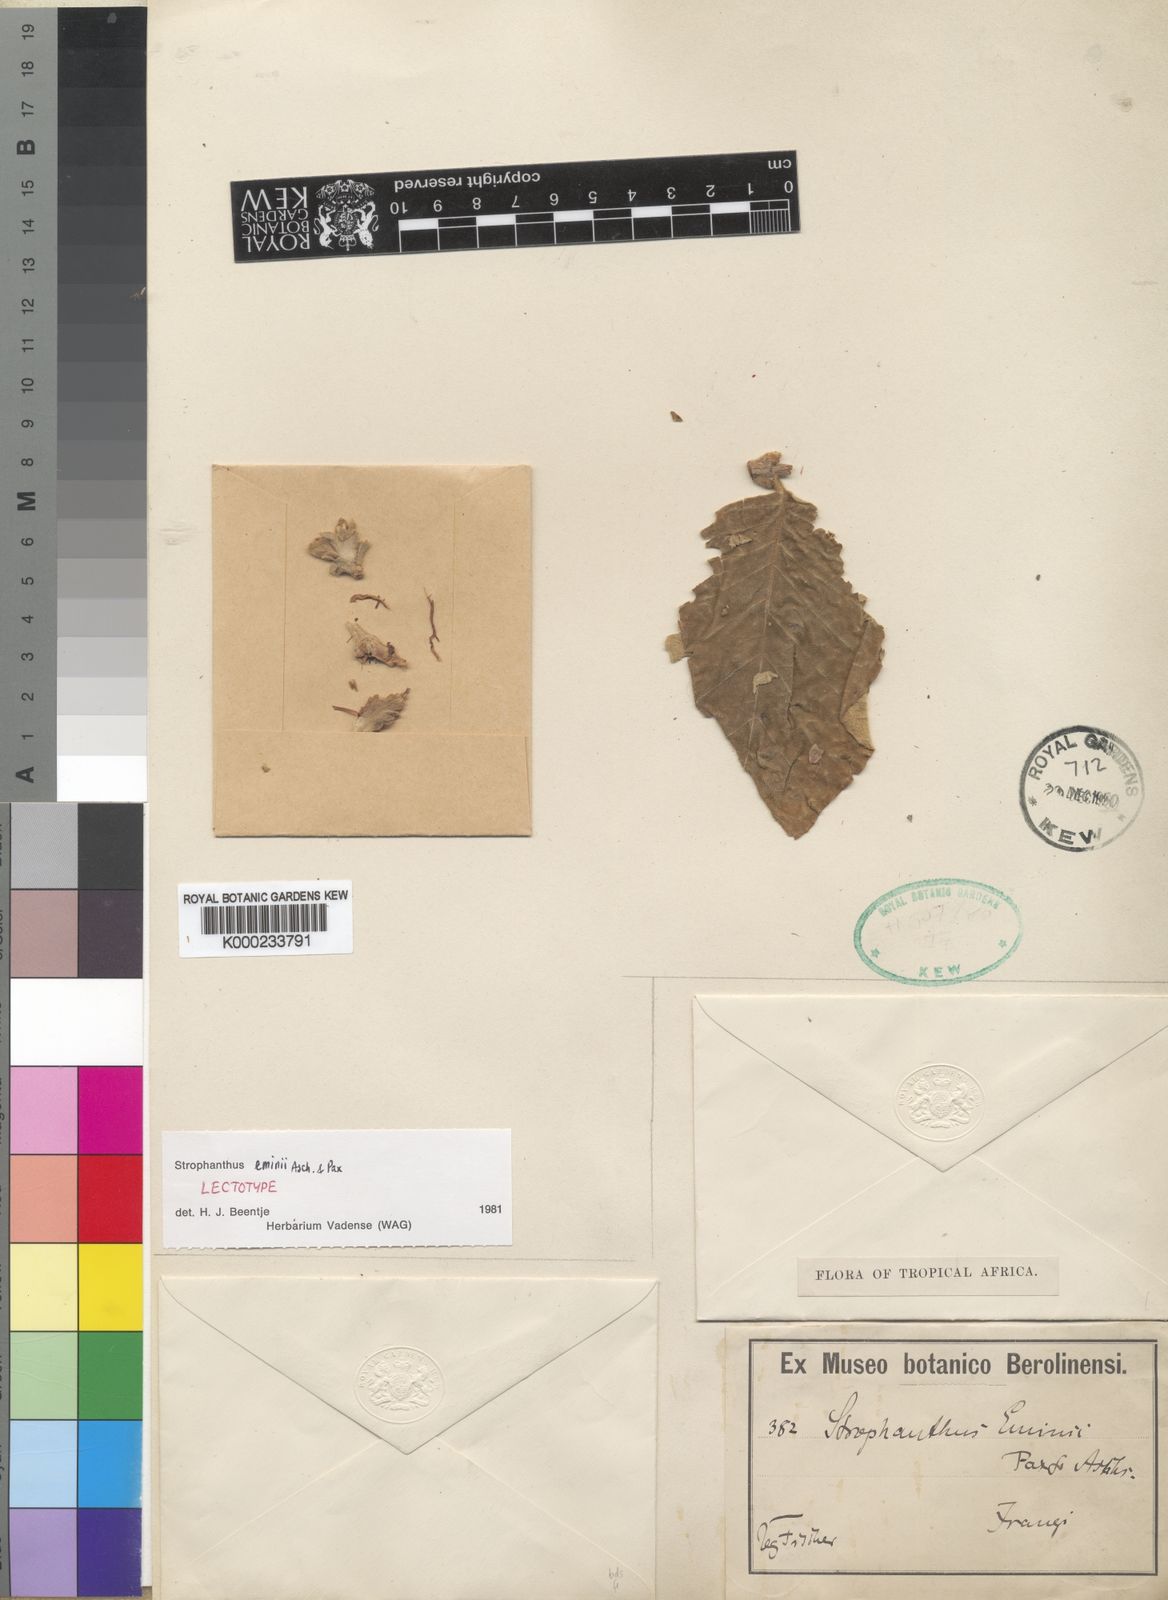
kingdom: Plantae
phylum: Tracheophyta
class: Magnoliopsida
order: Gentianales
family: Apocynaceae
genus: Strophanthus
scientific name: Strophanthus eminii
